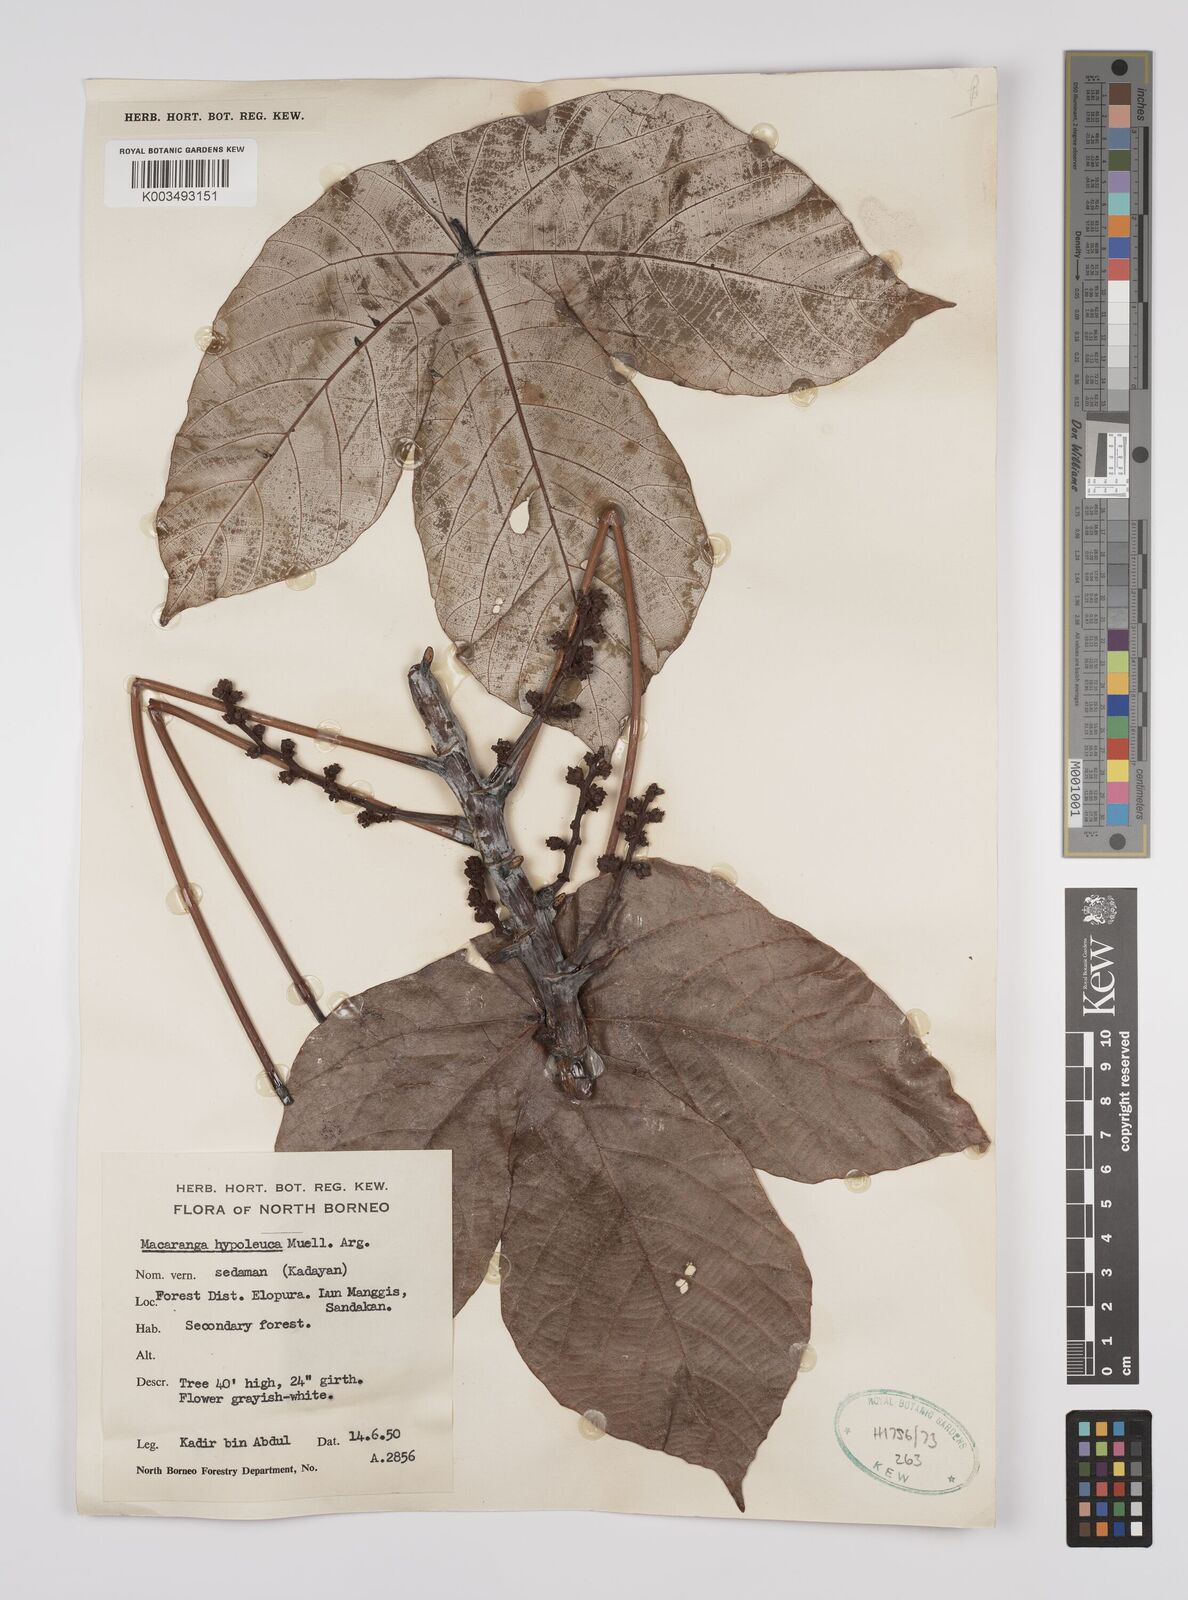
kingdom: Plantae
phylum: Tracheophyta
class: Magnoliopsida
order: Malpighiales
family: Euphorbiaceae
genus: Macaranga
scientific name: Macaranga hypoleuca
